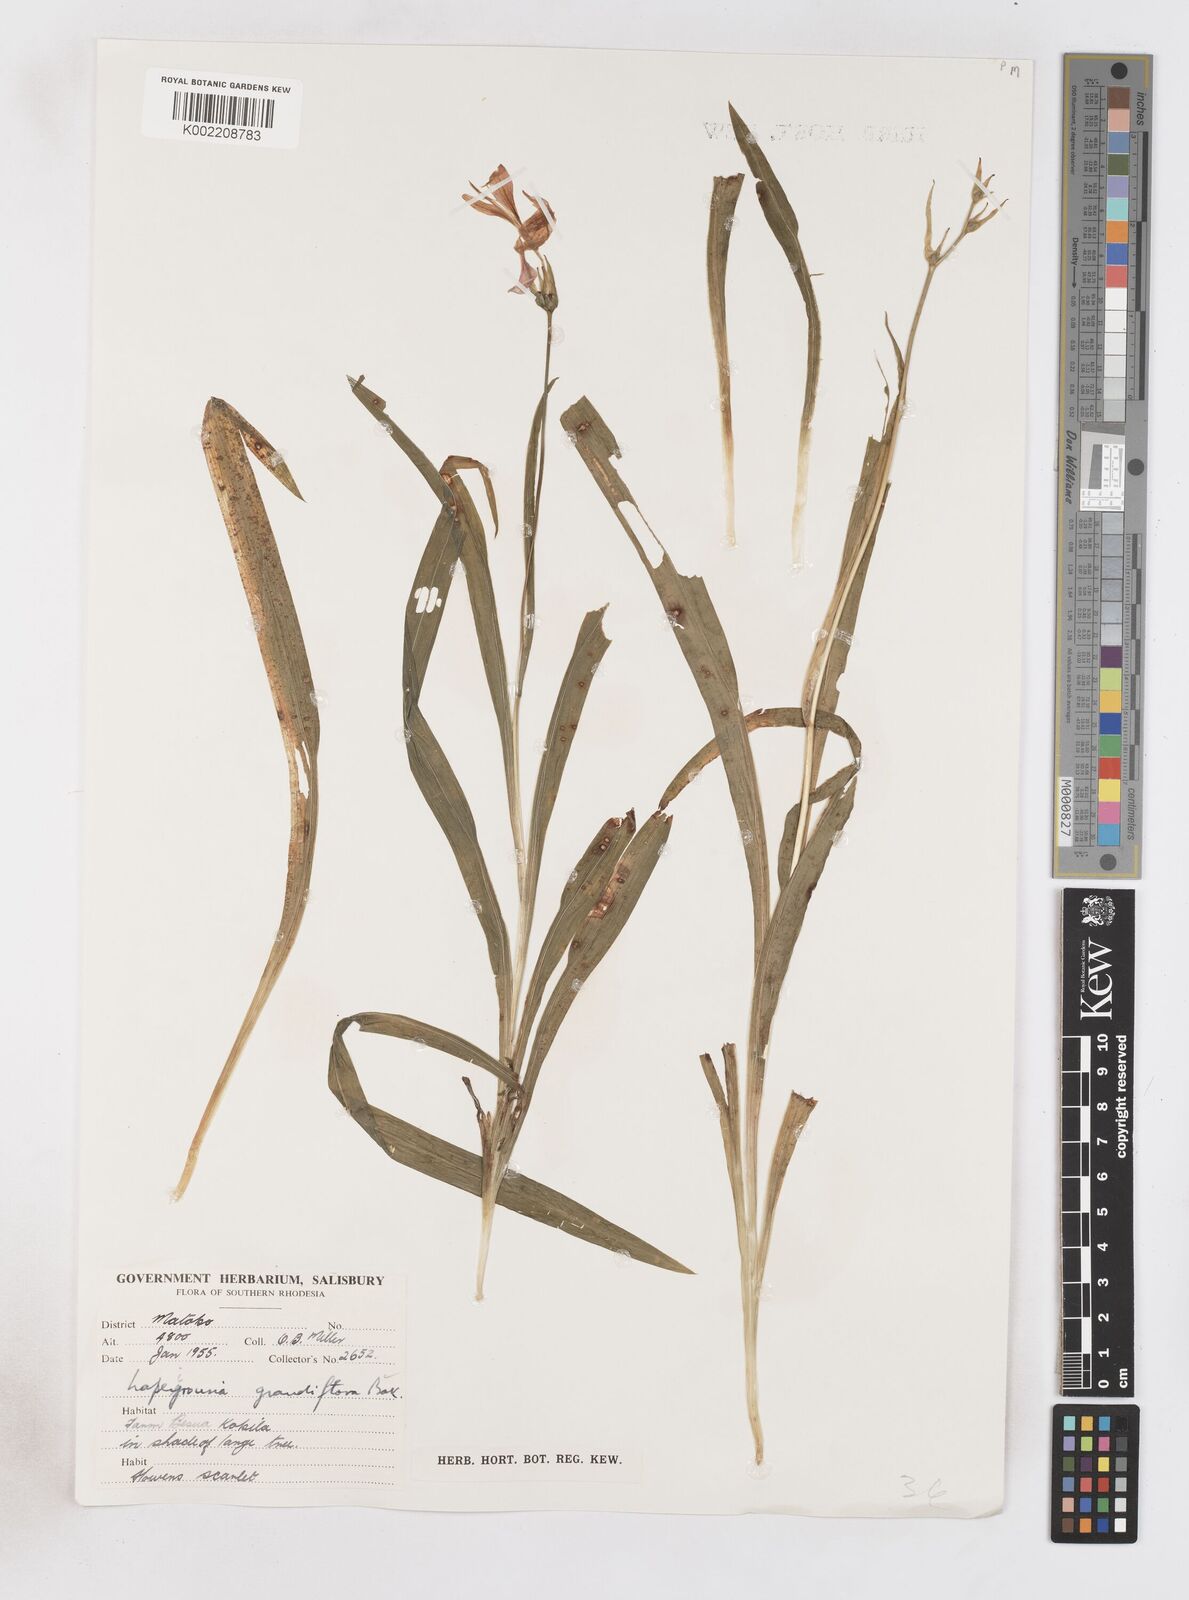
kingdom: Plantae
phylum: Tracheophyta
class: Liliopsida
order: Asparagales
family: Iridaceae
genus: Freesia
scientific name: Freesia grandiflora
